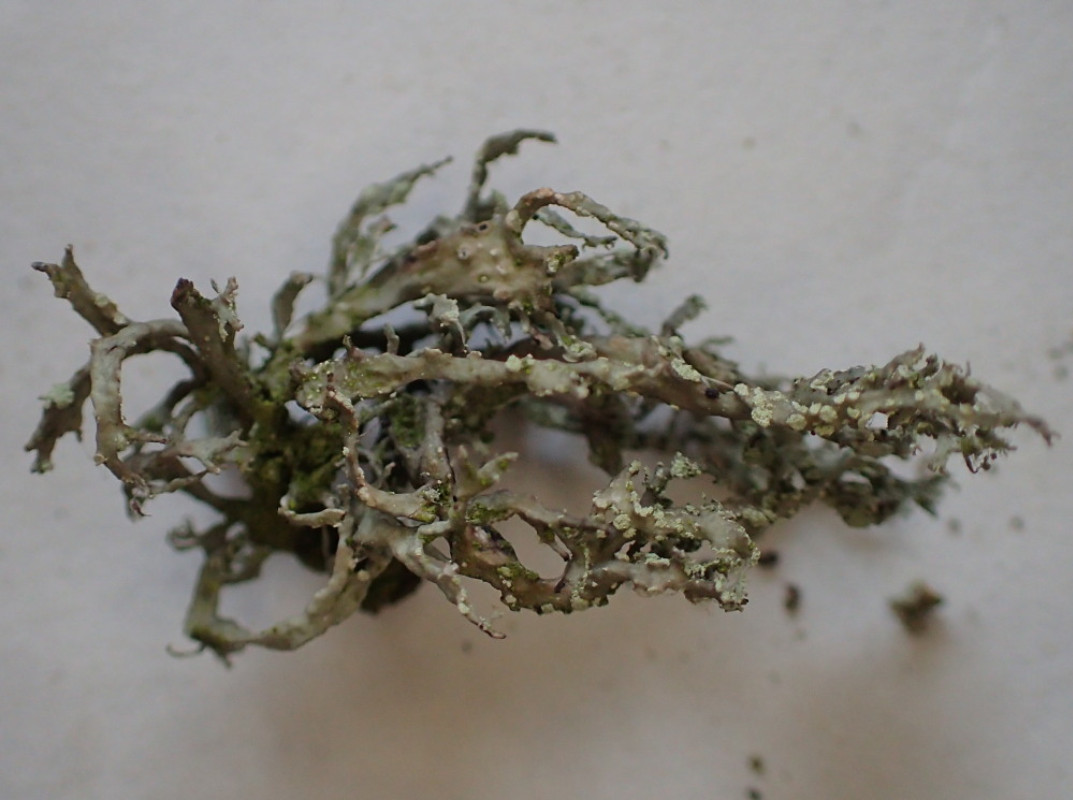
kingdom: Fungi
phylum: Ascomycota
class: Lecanoromycetes
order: Lecanorales
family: Ramalinaceae
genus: Ramalina
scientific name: Ramalina farinacea
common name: melet grenlav
